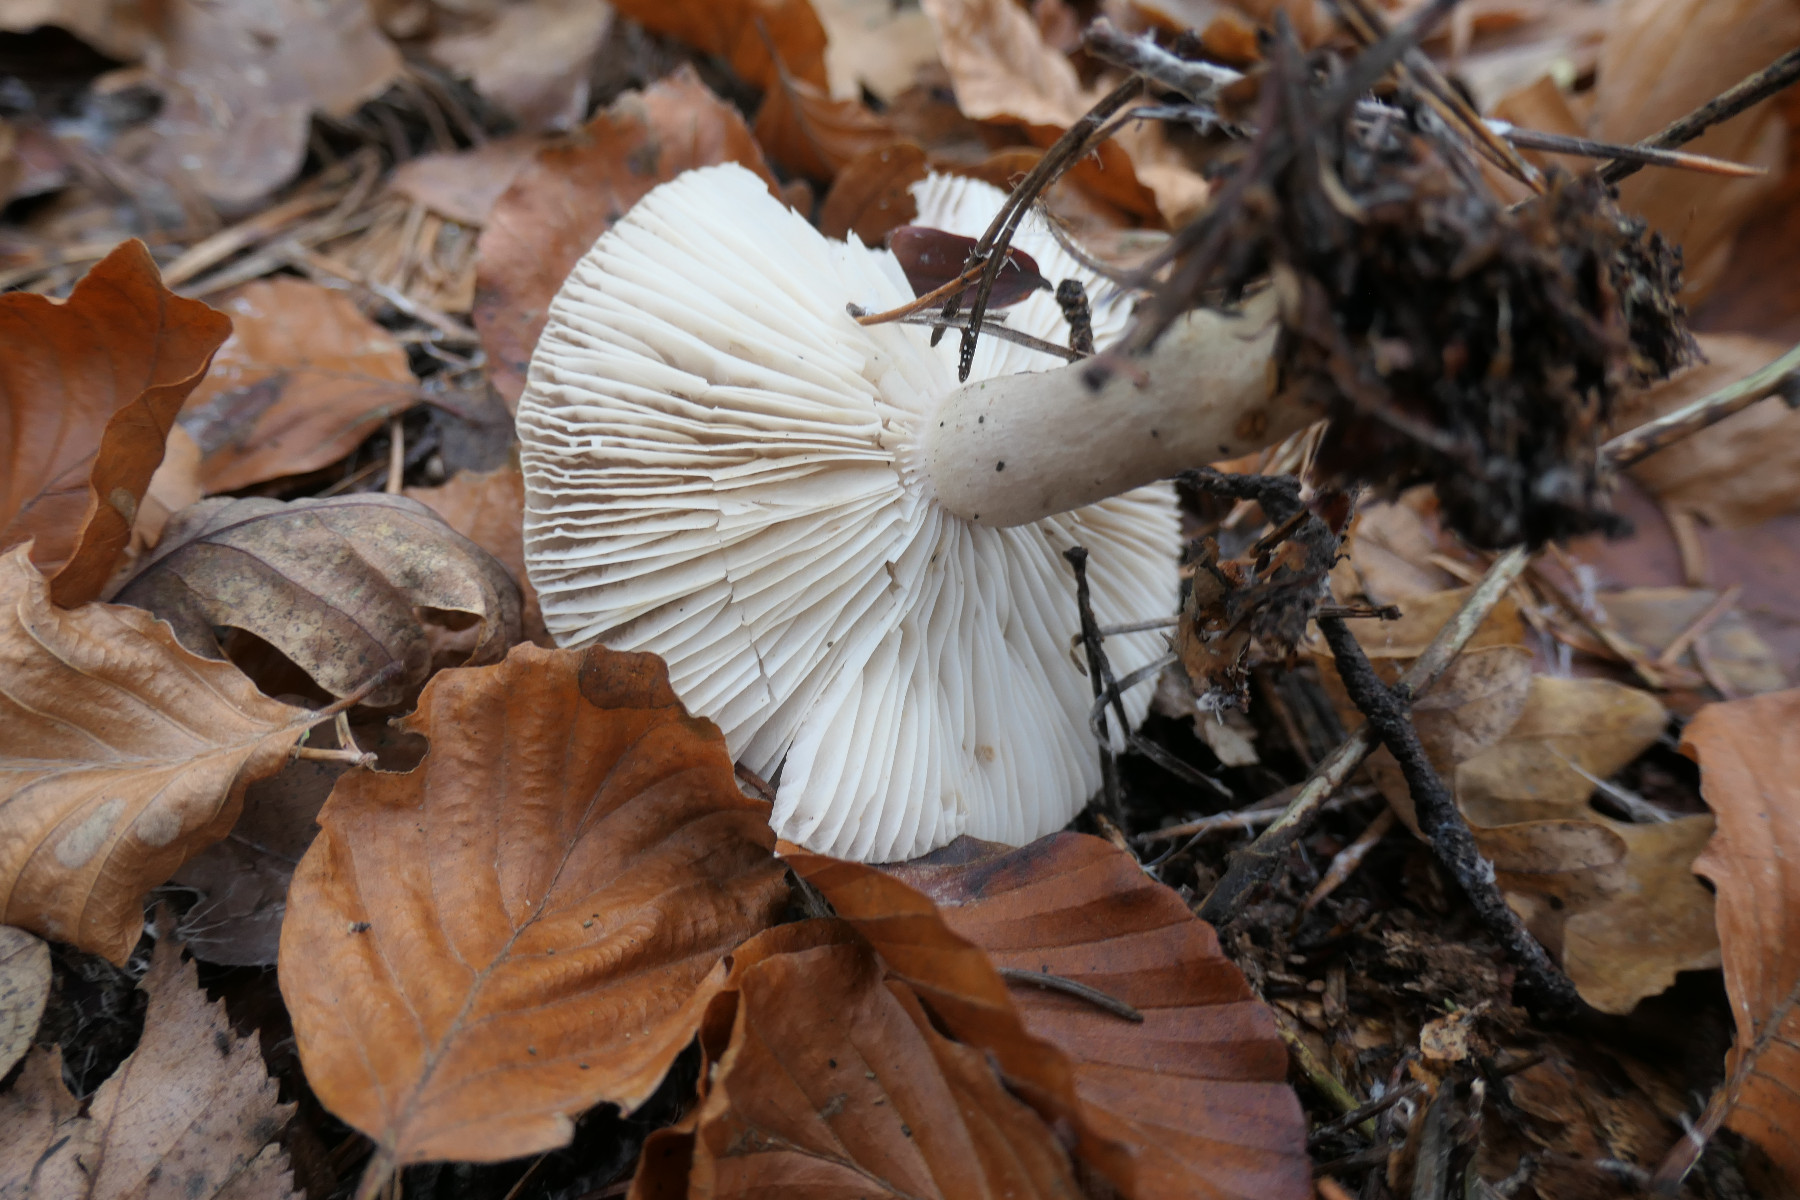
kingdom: Fungi
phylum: Basidiomycota
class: Agaricomycetes
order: Russulales
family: Russulaceae
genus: Lactarius
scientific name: Lactarius blennius
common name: dråbeplettet mælkehat
